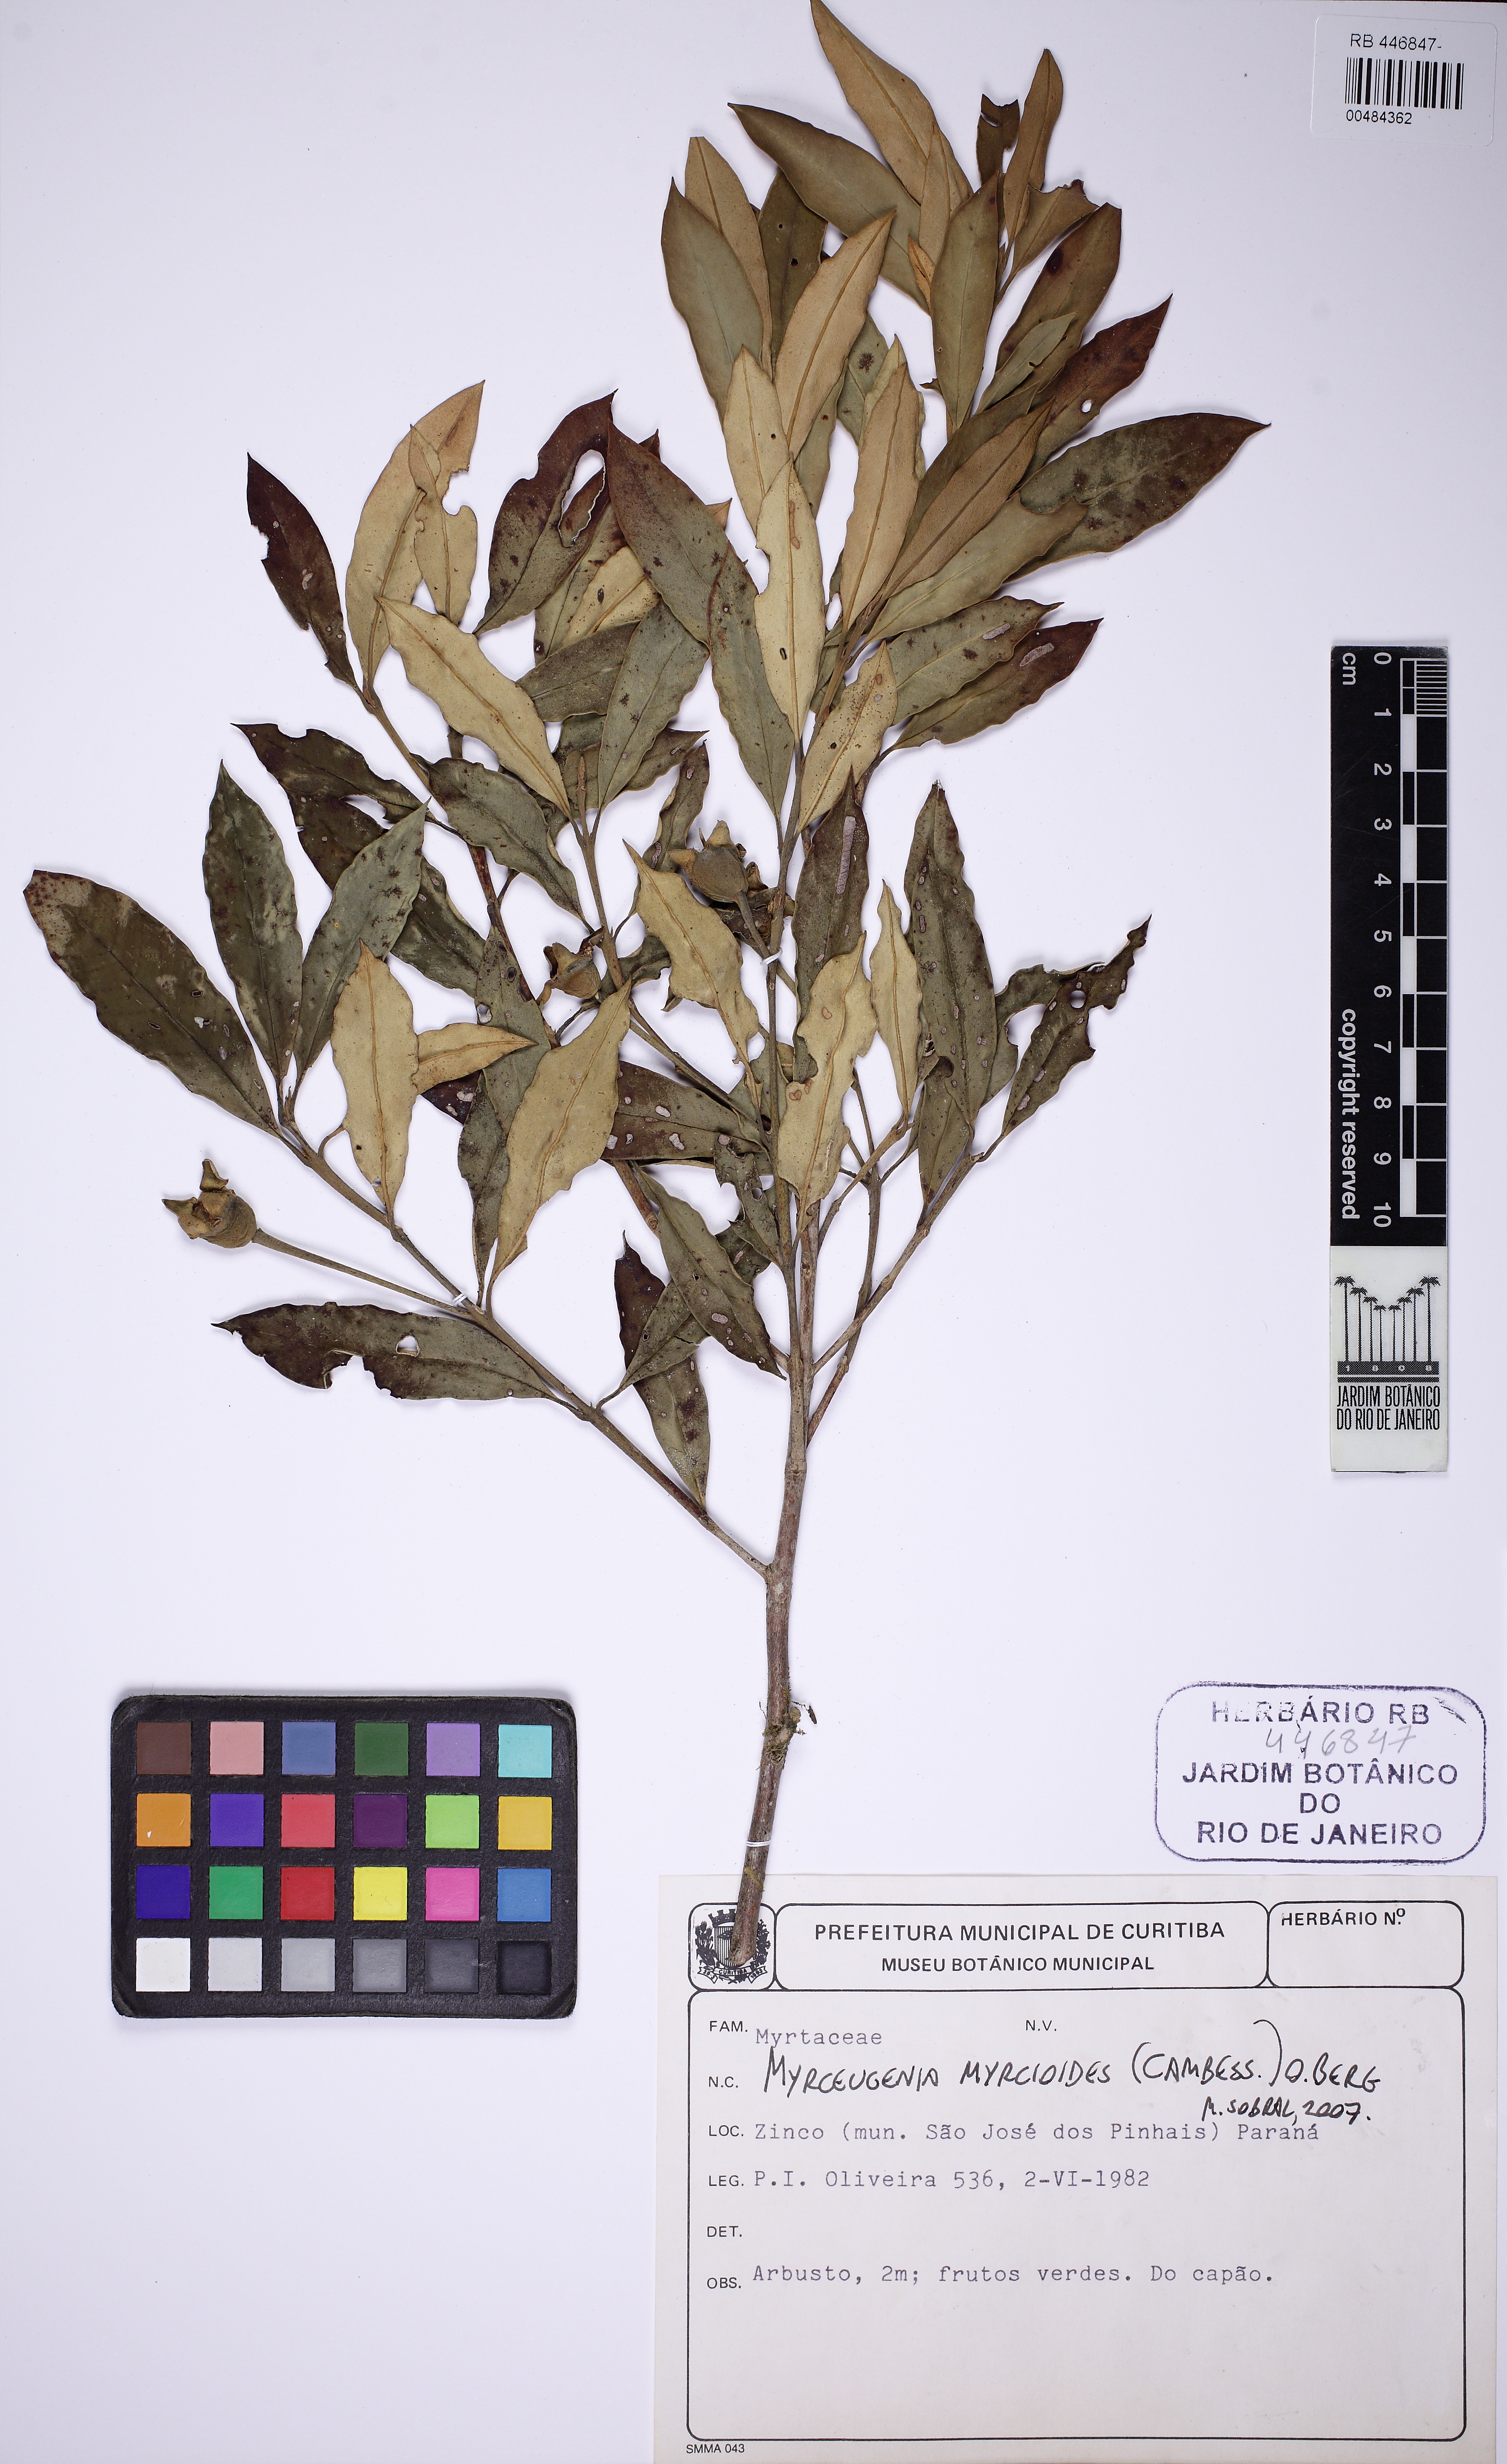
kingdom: Plantae
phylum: Tracheophyta
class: Magnoliopsida
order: Myrtales
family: Myrtaceae
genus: Myrceugenia
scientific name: Myrceugenia myrcioides
